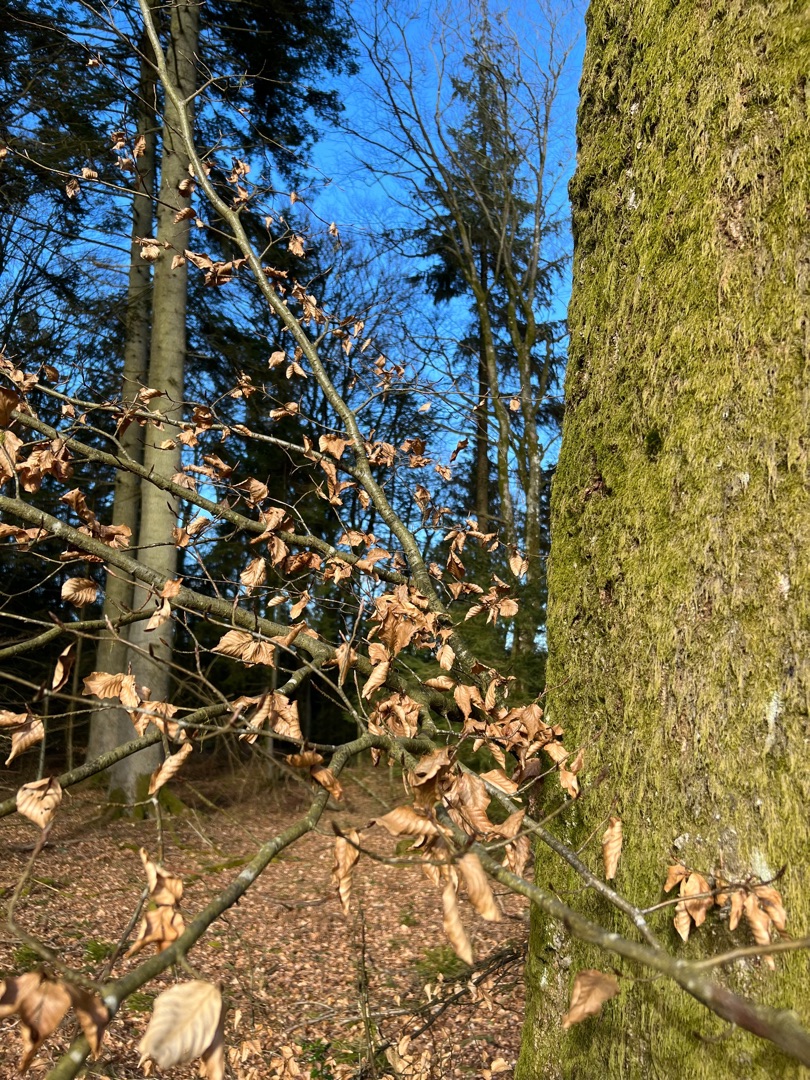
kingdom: Plantae
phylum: Tracheophyta
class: Magnoliopsida
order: Fagales
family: Fagaceae
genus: Fagus
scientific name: Fagus sylvatica
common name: Bøg
